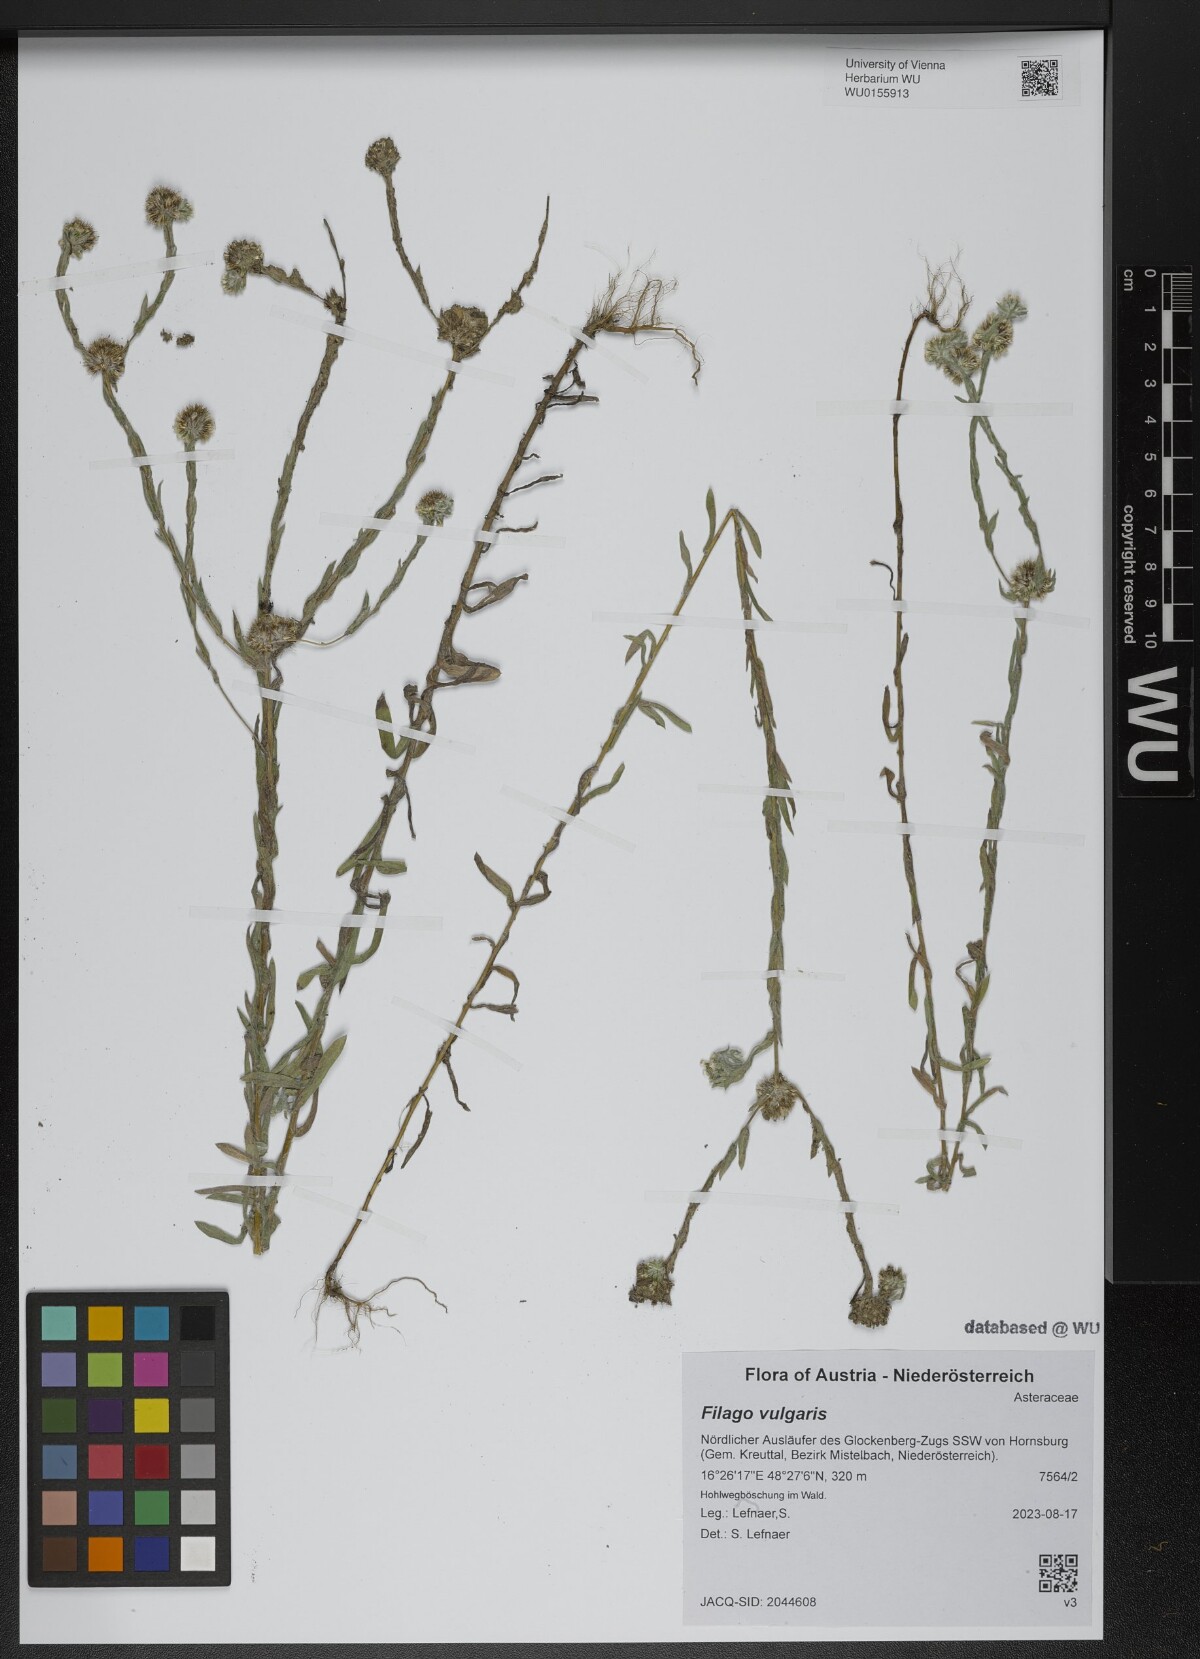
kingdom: Plantae
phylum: Tracheophyta
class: Magnoliopsida
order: Asterales
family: Asteraceae
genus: Filago
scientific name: Filago germanica
